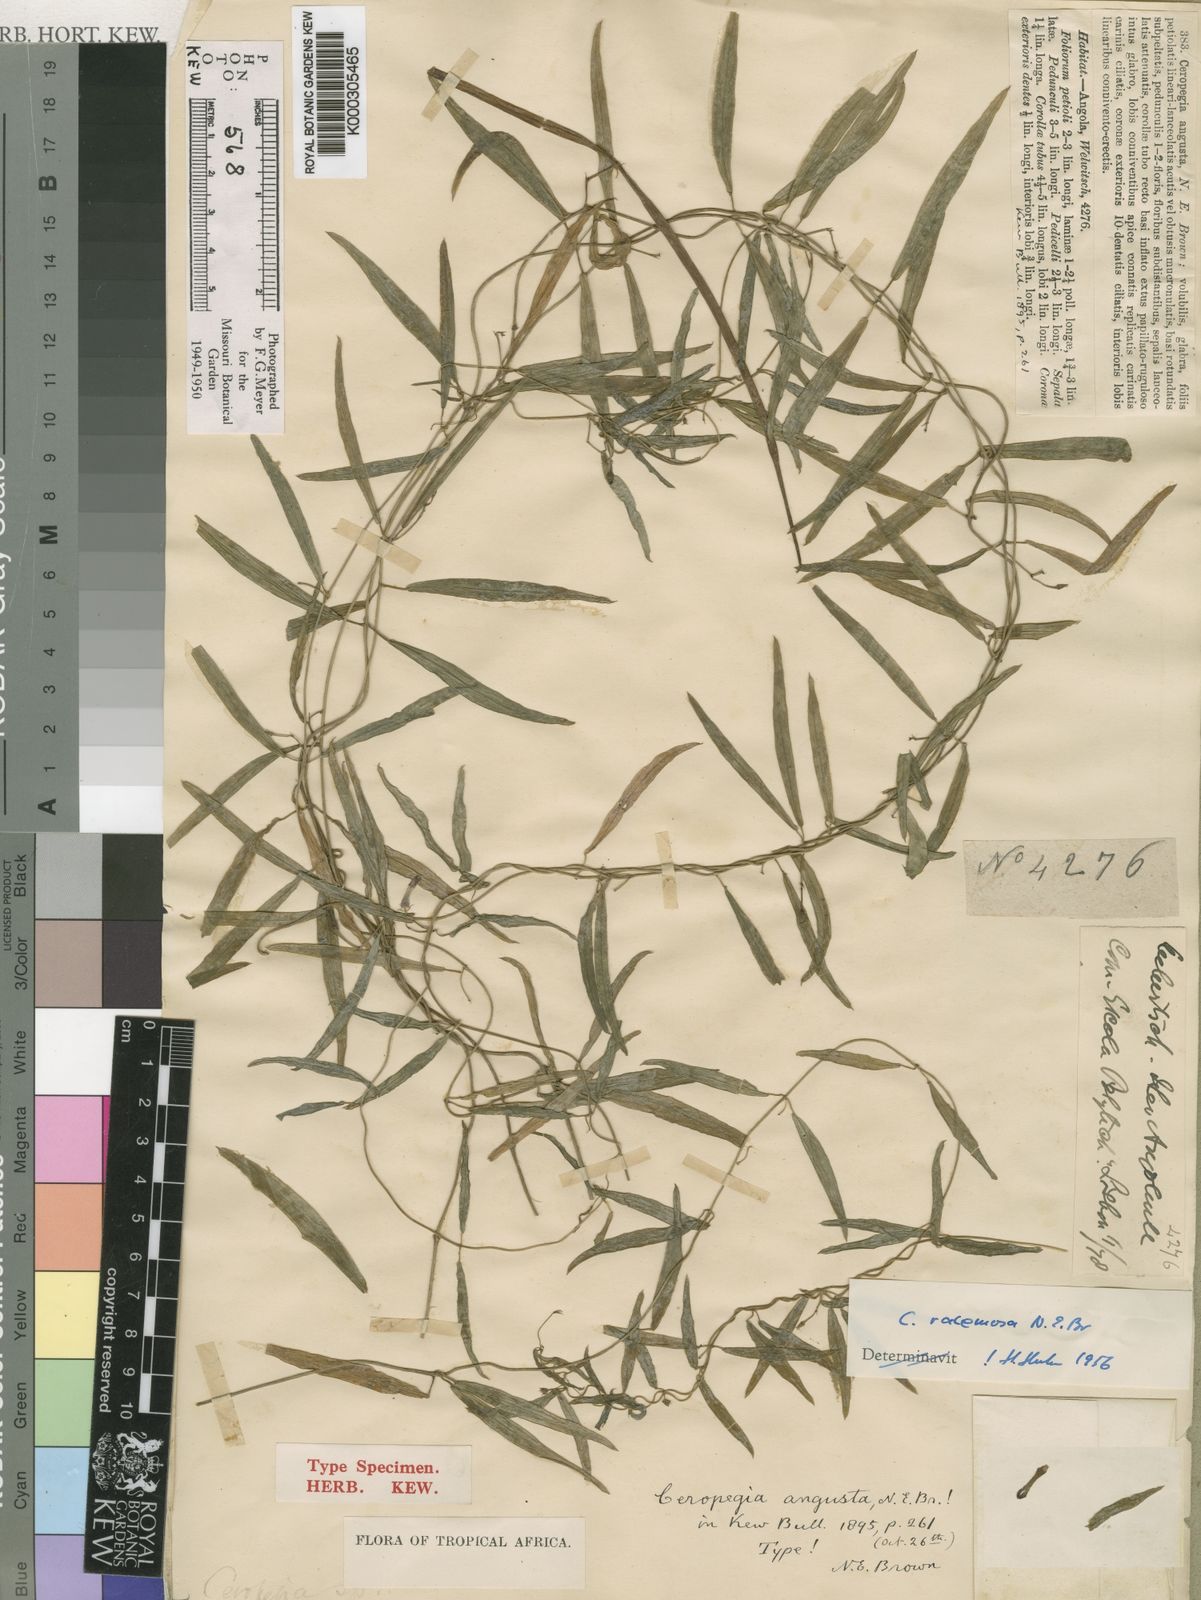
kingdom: Plantae
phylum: Tracheophyta
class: Magnoliopsida
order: Gentianales
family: Apocynaceae
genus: Ceropegia
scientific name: Ceropegia racemosa
